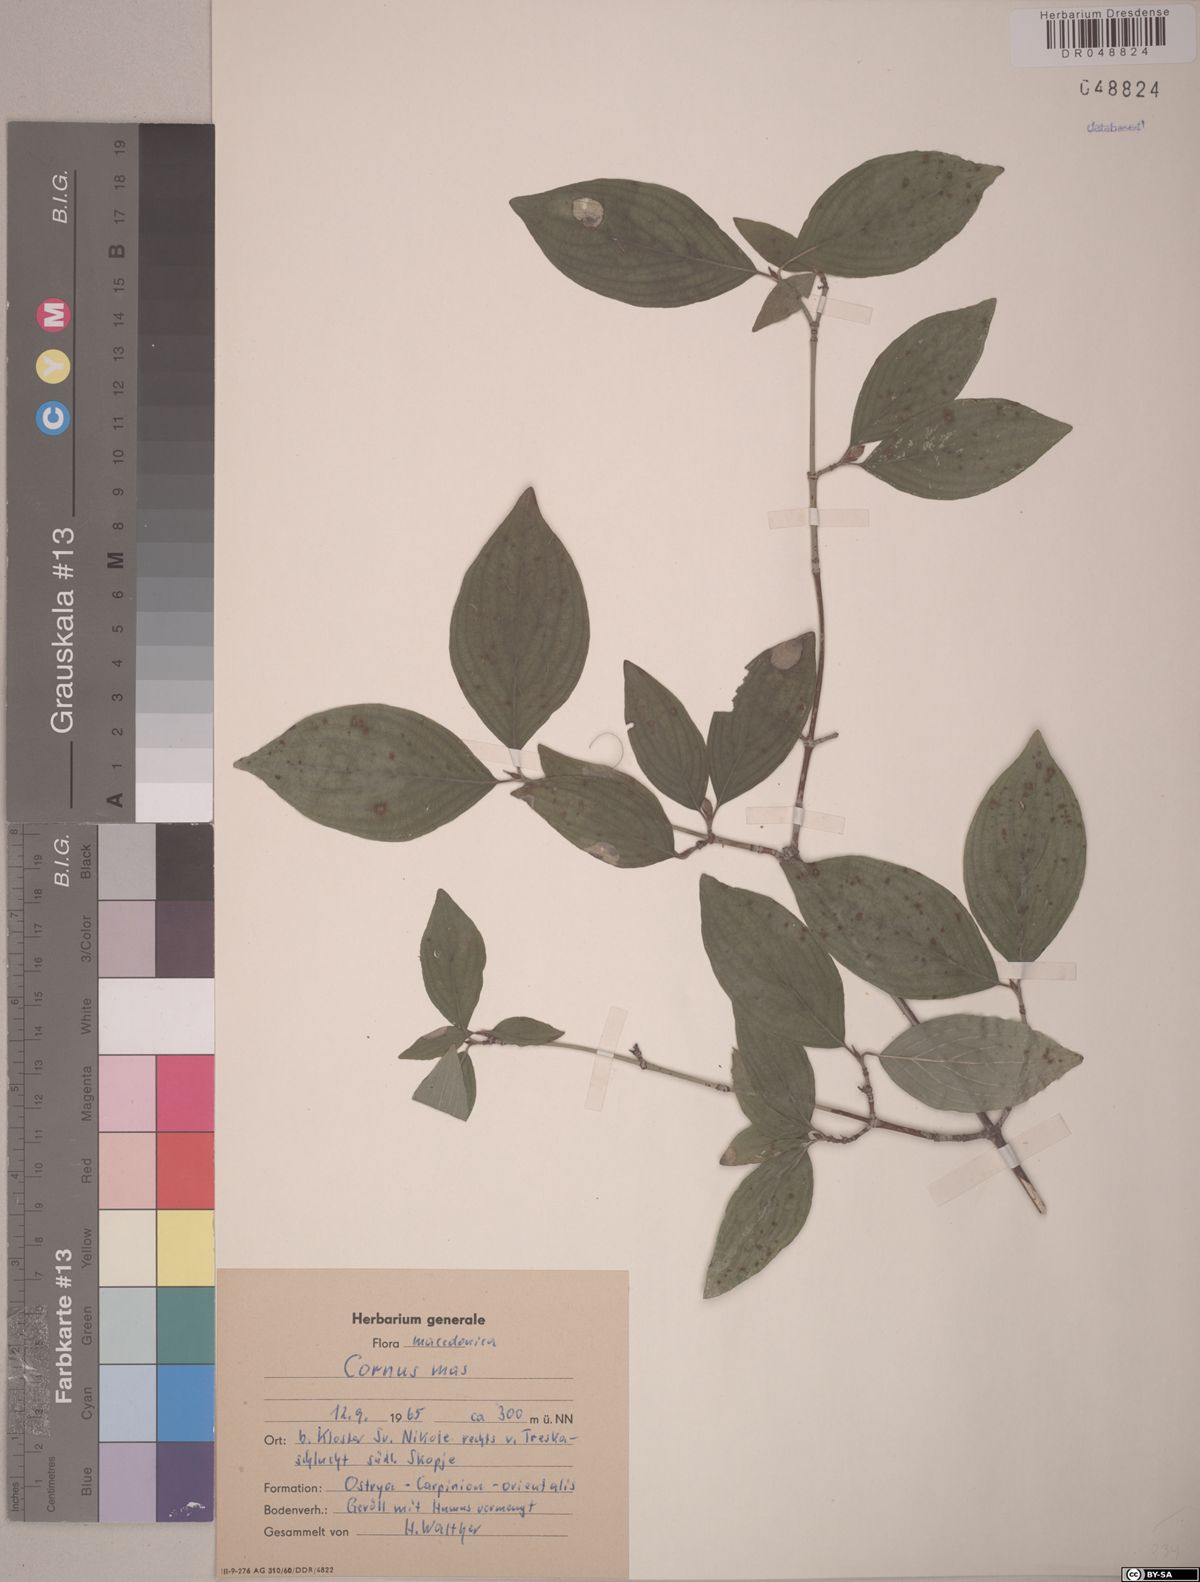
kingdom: Plantae
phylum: Tracheophyta
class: Magnoliopsida
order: Cornales
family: Cornaceae
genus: Cornus
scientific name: Cornus mas
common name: Cornelian-cherry
